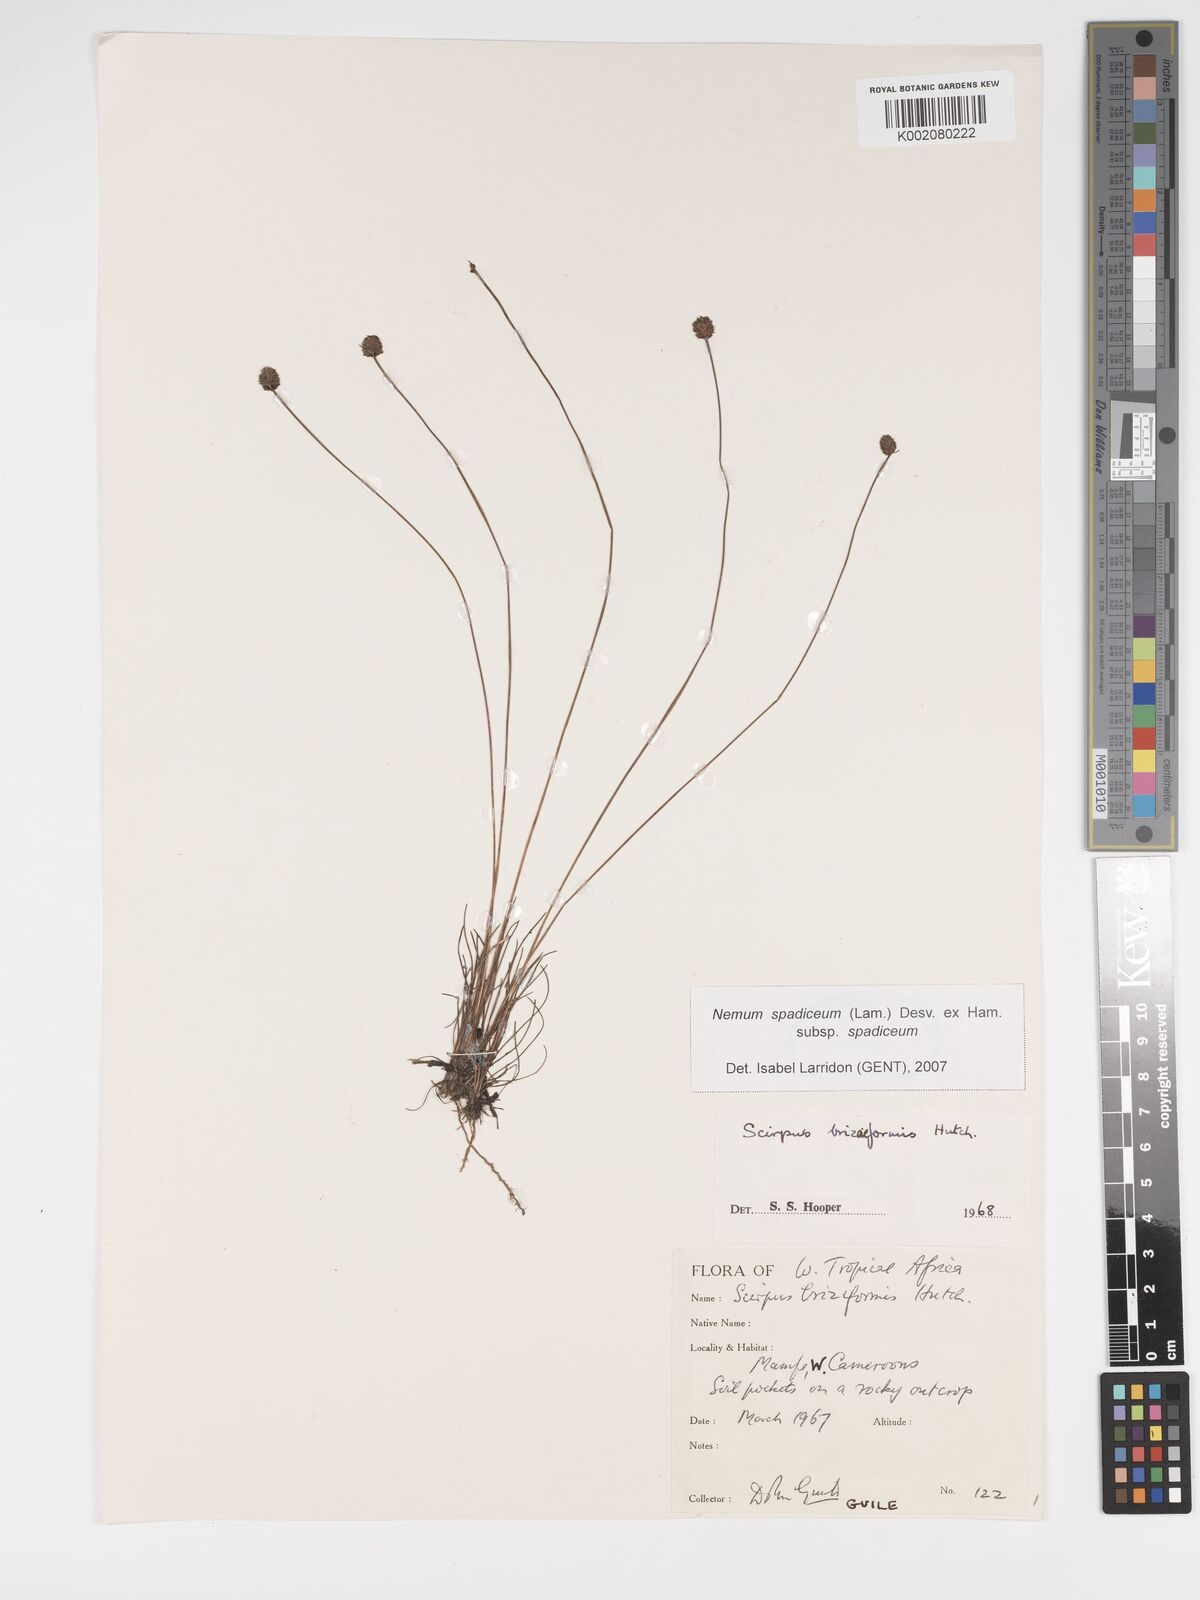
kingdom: Plantae
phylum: Tracheophyta
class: Liliopsida
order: Poales
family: Cyperaceae
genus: Bulbostylis
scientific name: Bulbostylis briziformis
